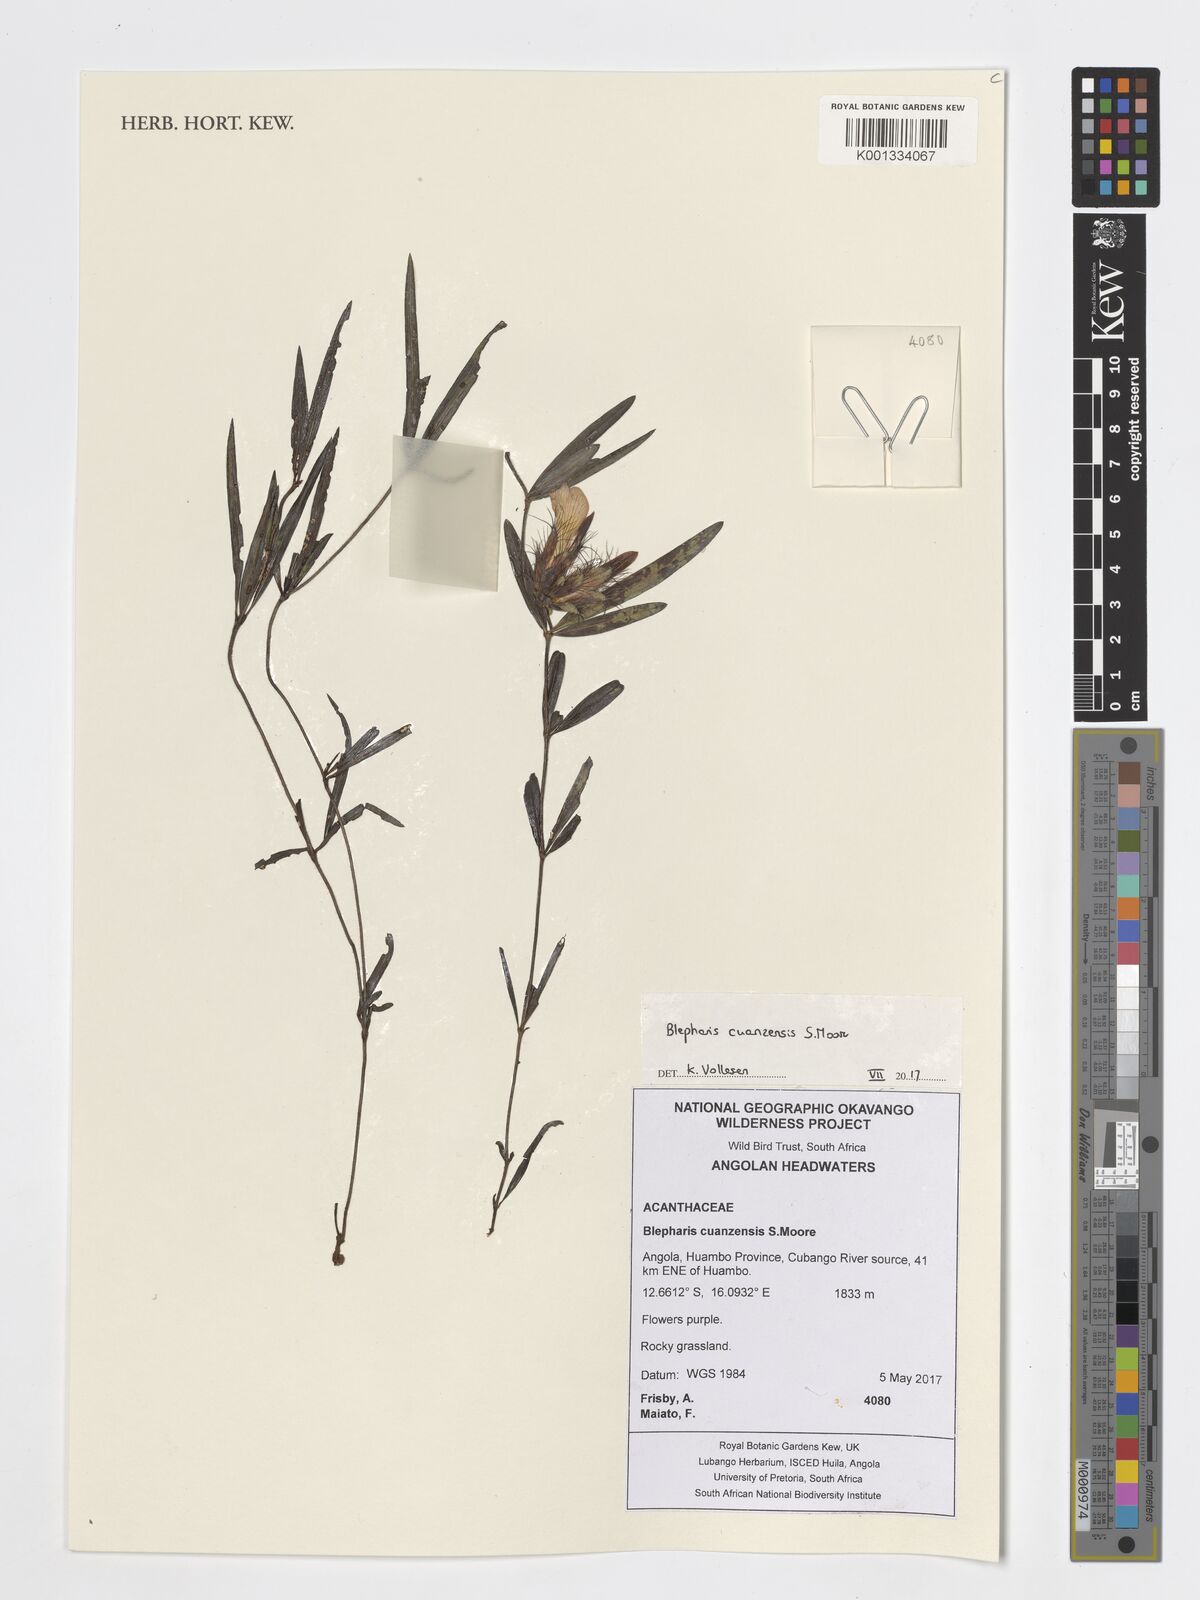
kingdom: Plantae
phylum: Tracheophyta
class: Magnoliopsida
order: Lamiales
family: Acanthaceae
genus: Blepharis
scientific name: Blepharis cuanzensis
